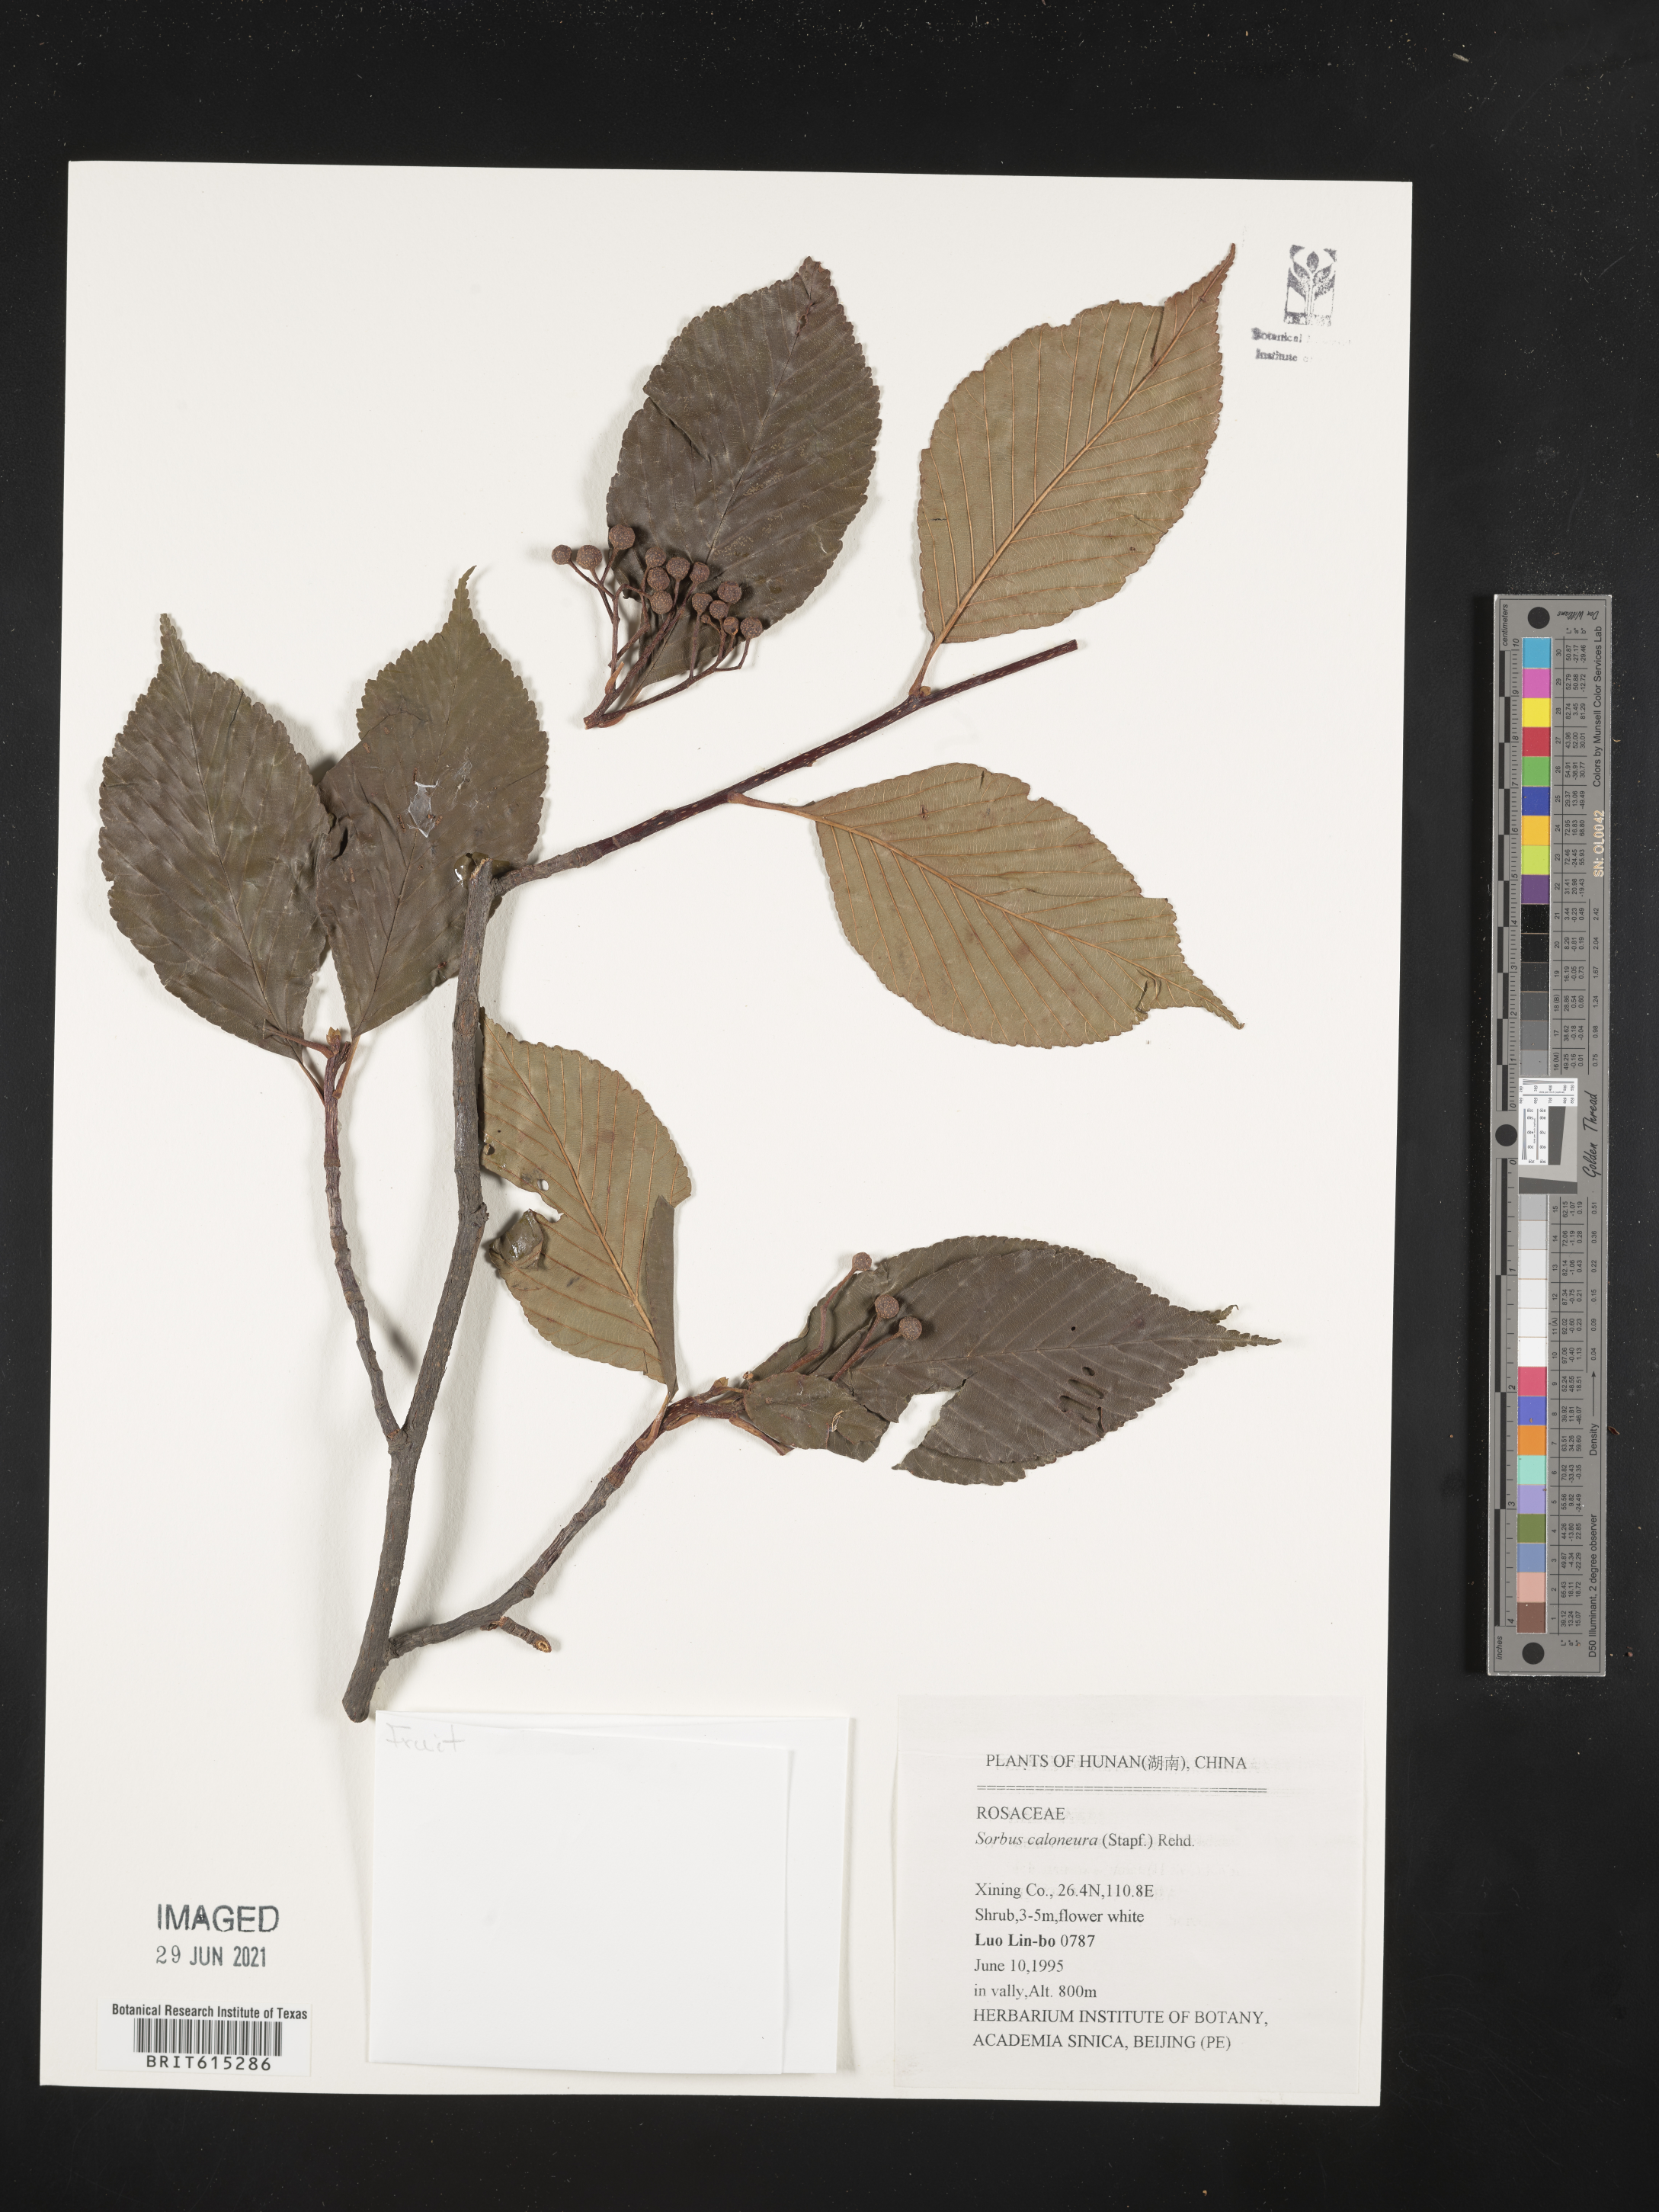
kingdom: Plantae
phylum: Tracheophyta
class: Magnoliopsida
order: Rosales
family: Rosaceae
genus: Sorbus
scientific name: Sorbus caloneura
